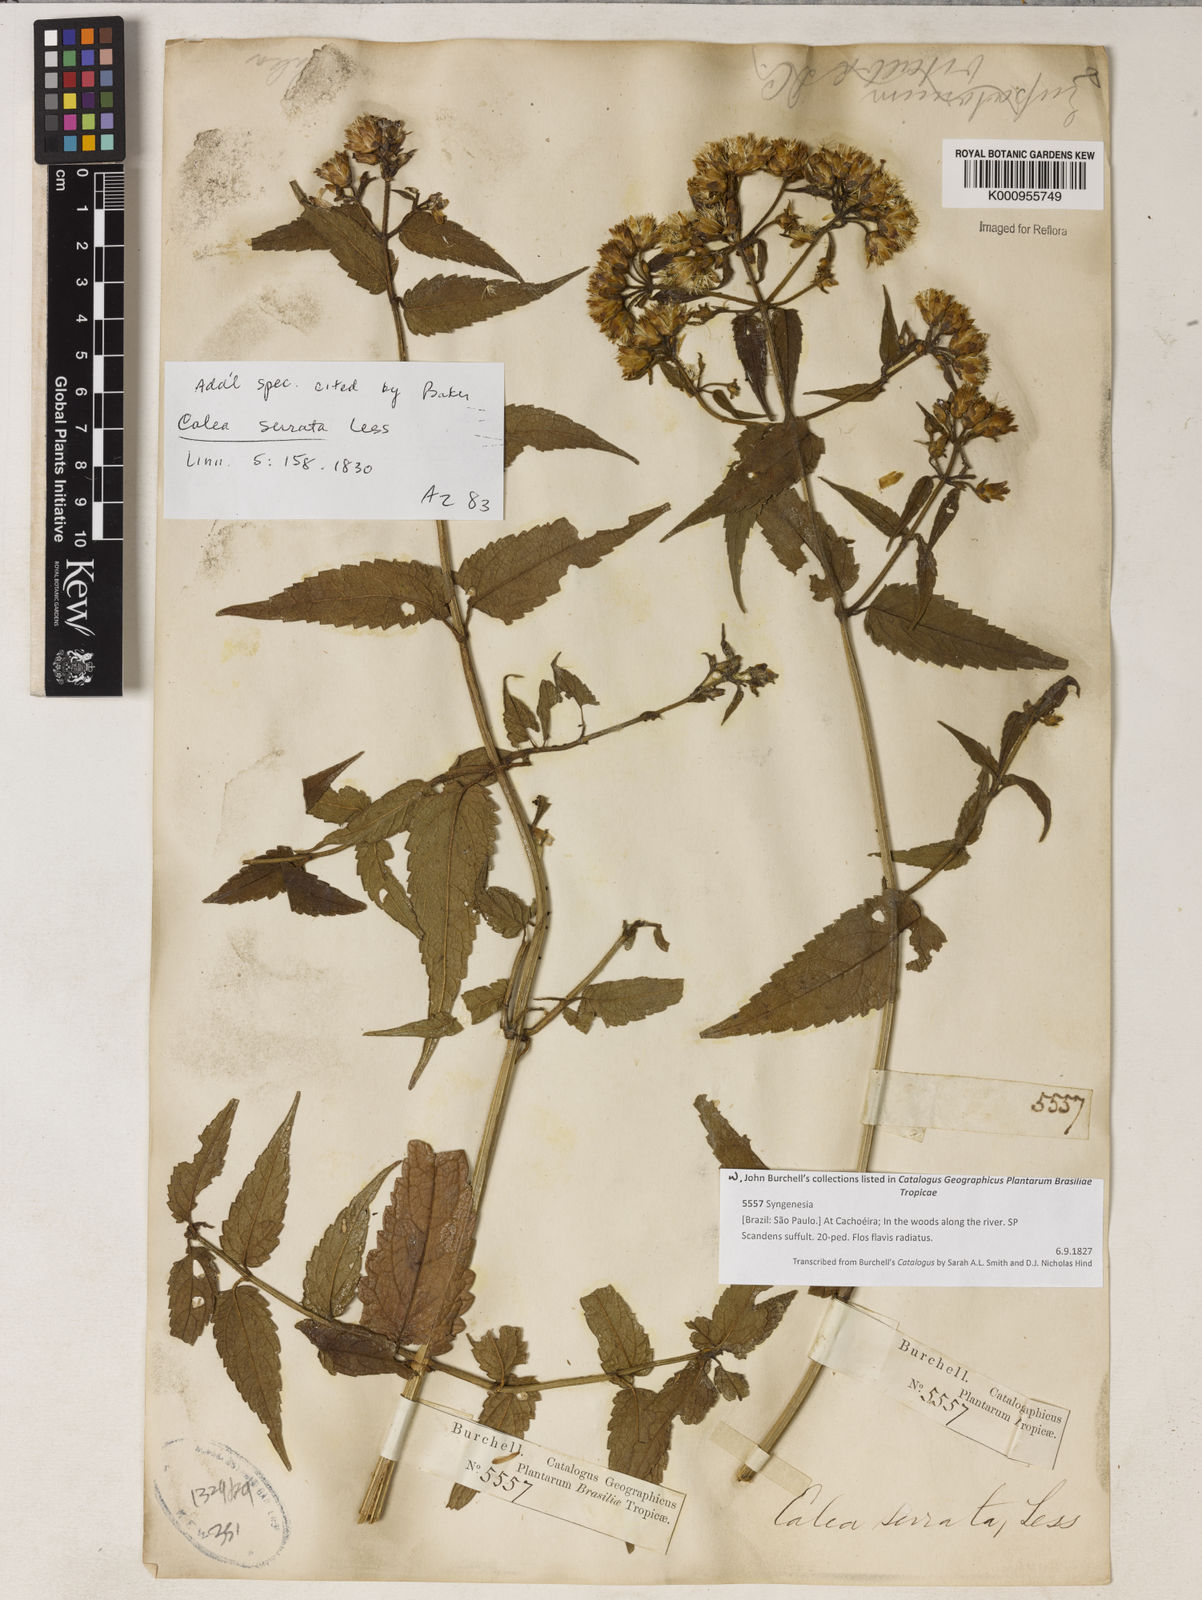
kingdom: Plantae
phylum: Tracheophyta
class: Magnoliopsida
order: Asterales
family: Asteraceae
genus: Calea
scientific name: Calea jamaicensis
